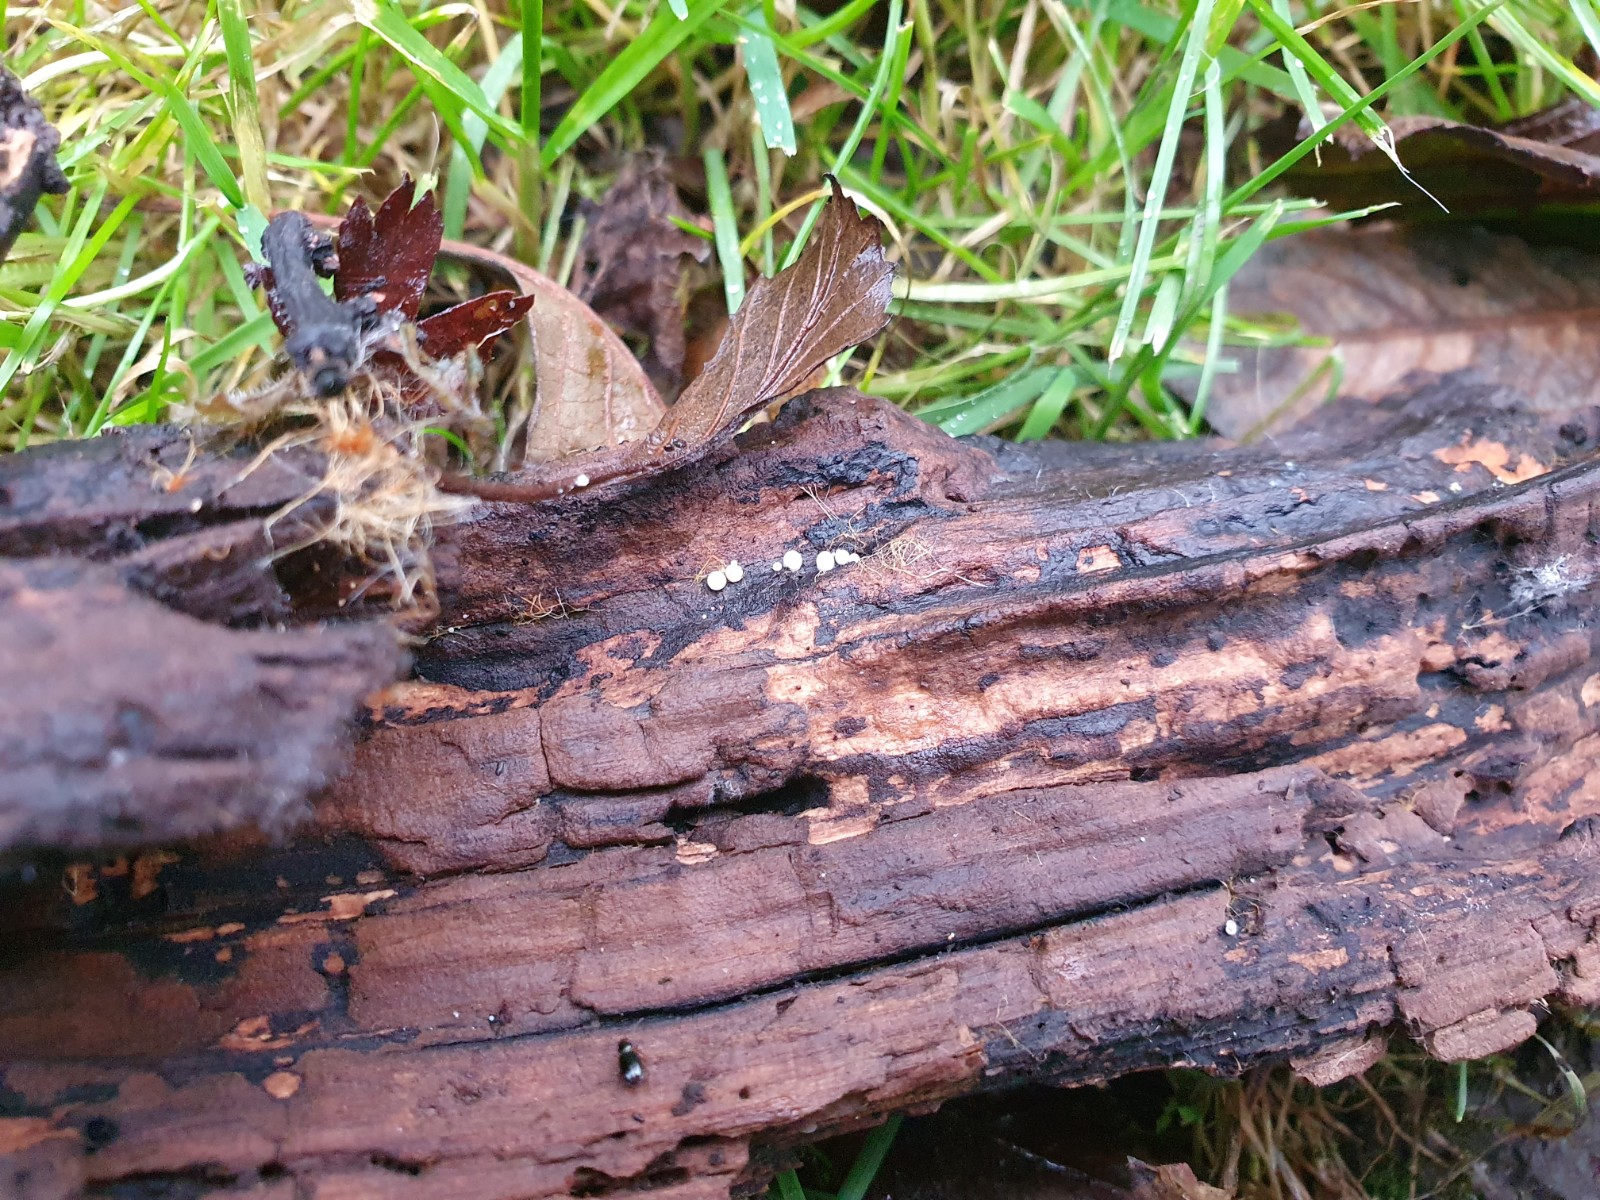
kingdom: Fungi
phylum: Basidiomycota
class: Agaricomycetes
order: Agaricales
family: Mycenaceae
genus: Mycena
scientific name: Mycena clavularis
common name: dunskivet huesvamp
